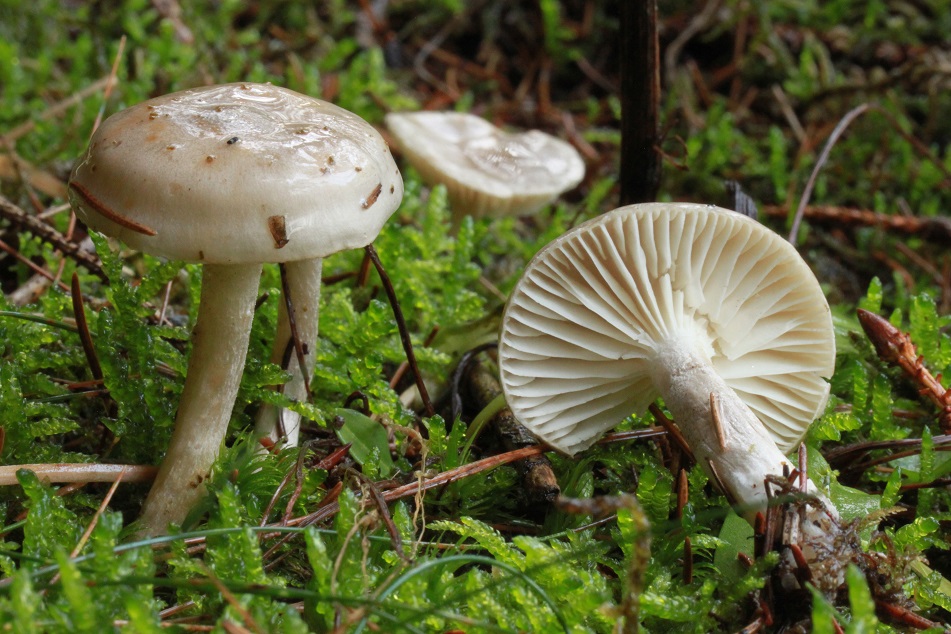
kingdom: Fungi
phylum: Basidiomycota
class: Agaricomycetes
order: Agaricales
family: Hygrophoraceae
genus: Hygrophorus
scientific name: Hygrophorus agathosmus
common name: vellugtende sneglehat
